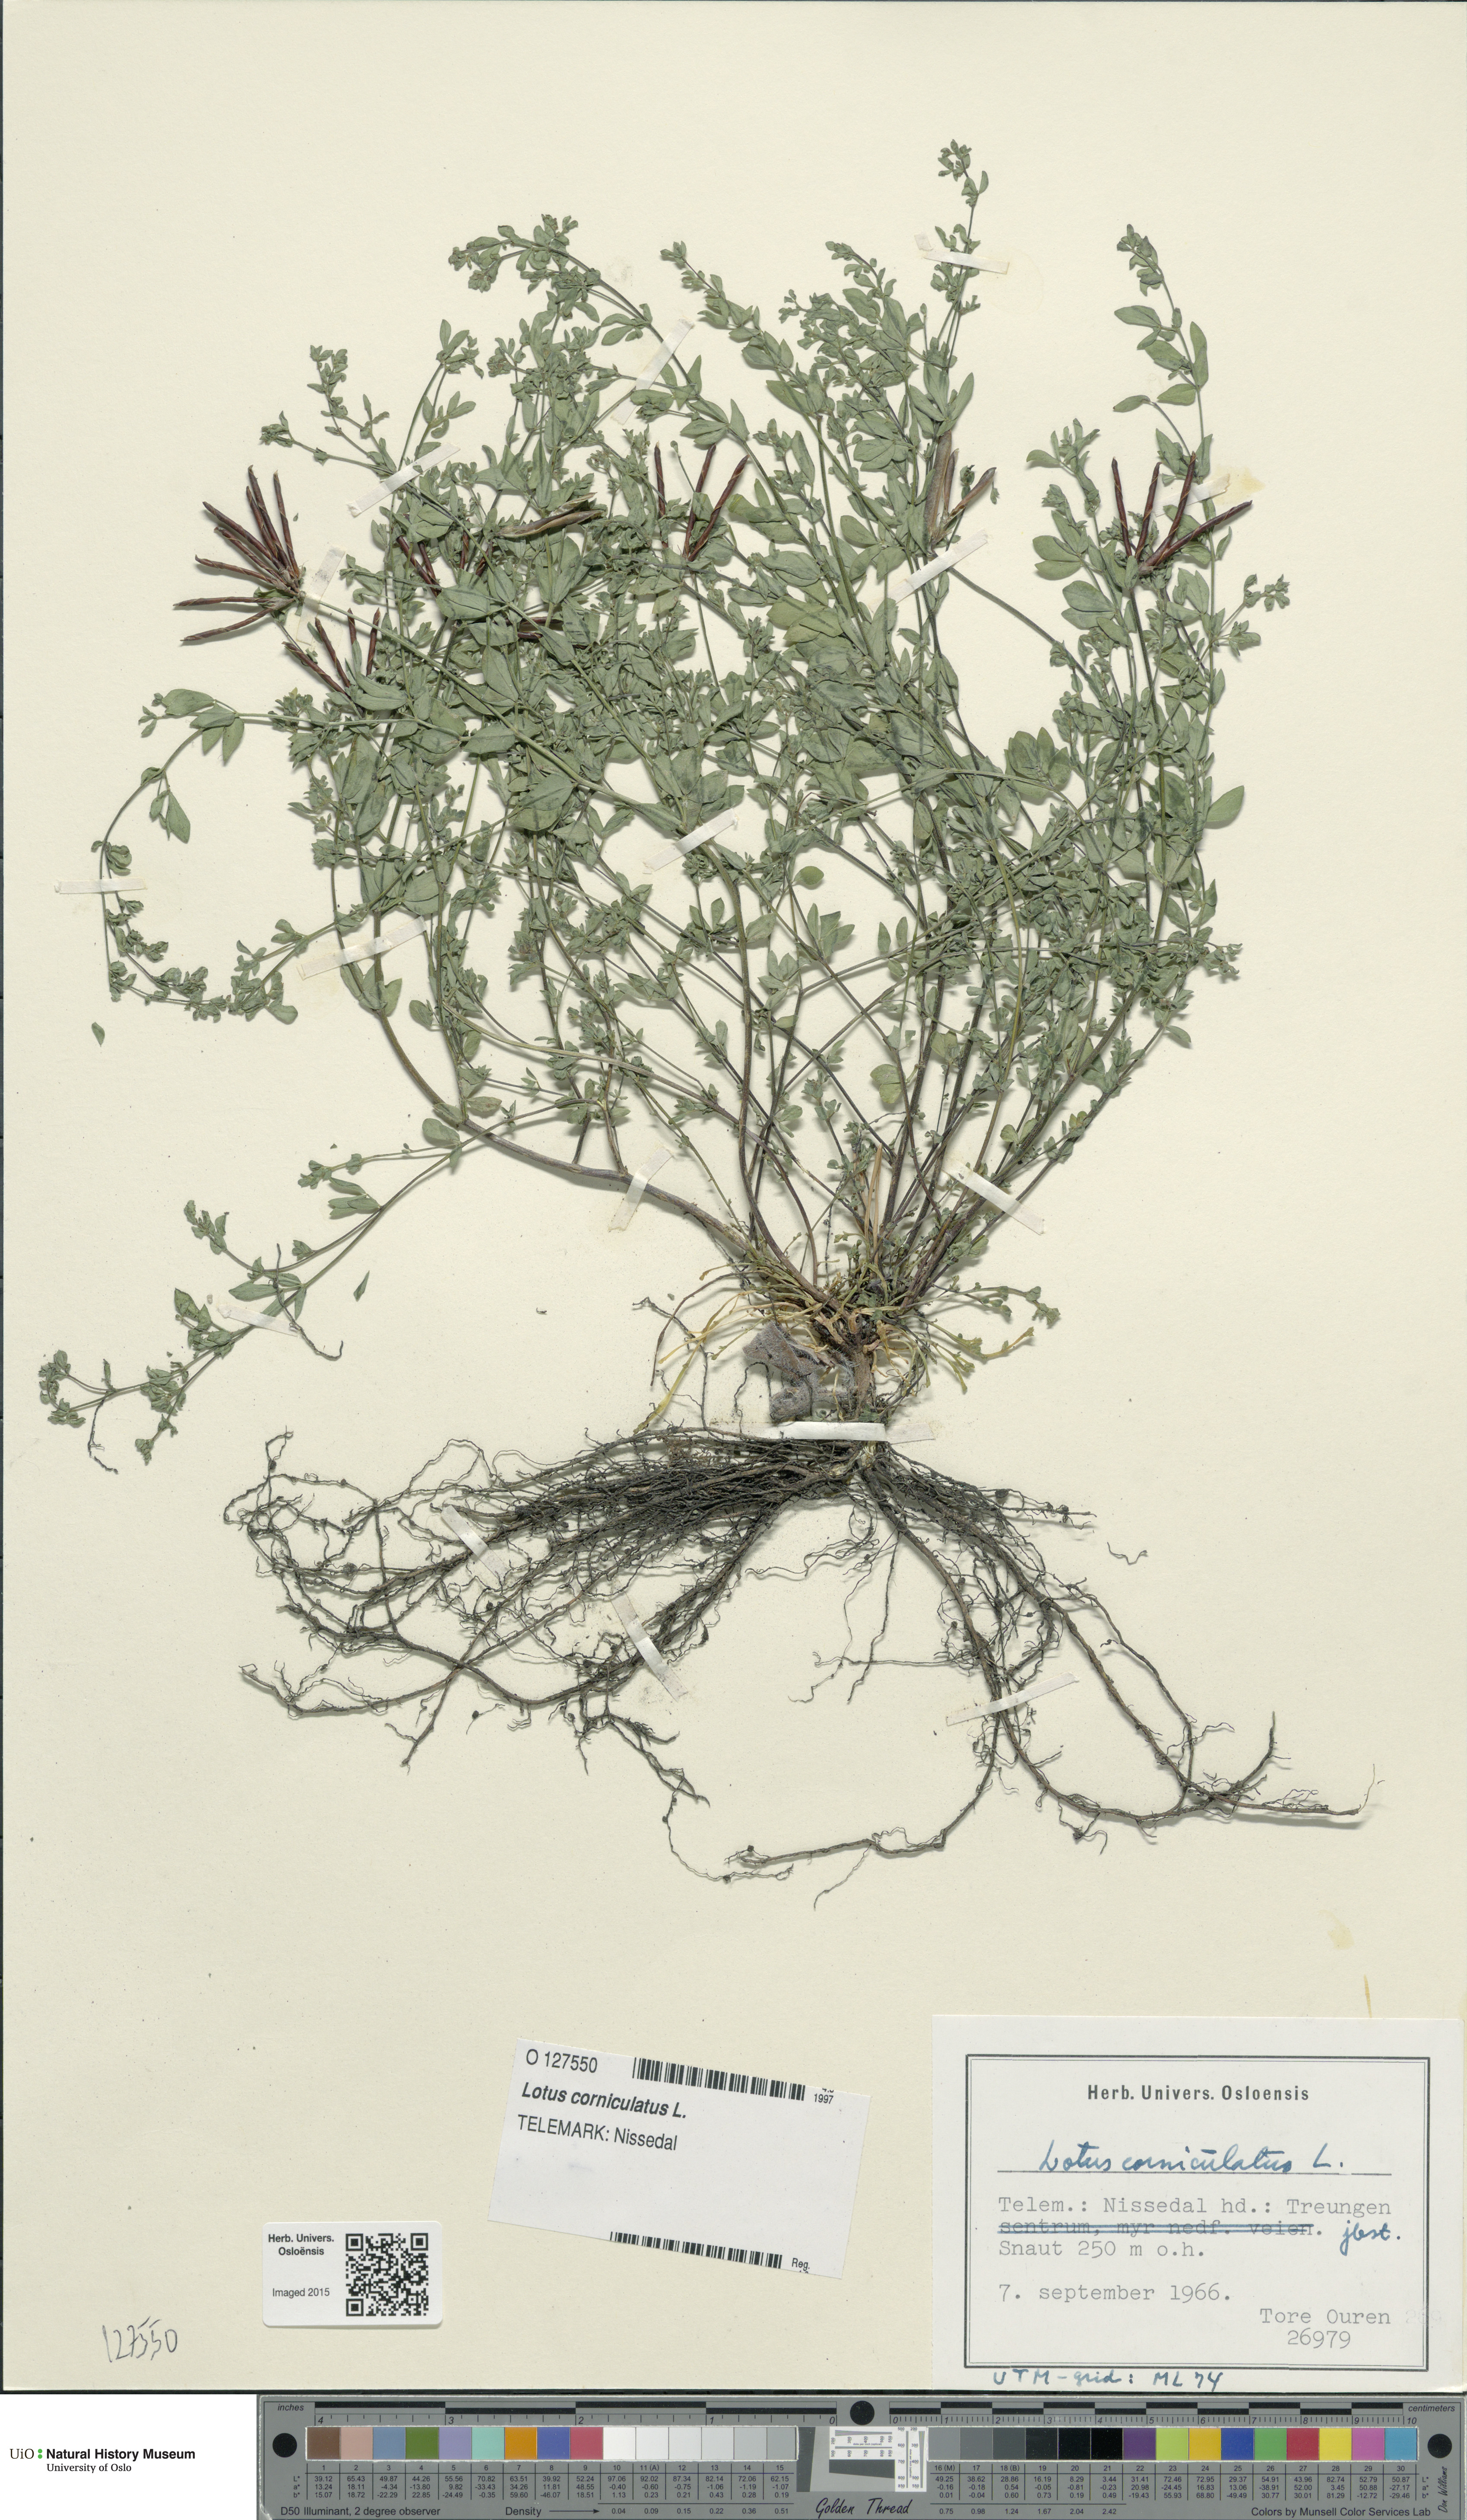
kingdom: Plantae
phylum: Tracheophyta
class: Magnoliopsida
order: Fabales
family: Fabaceae
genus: Lotus
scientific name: Lotus corniculatus
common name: Common bird's-foot-trefoil
